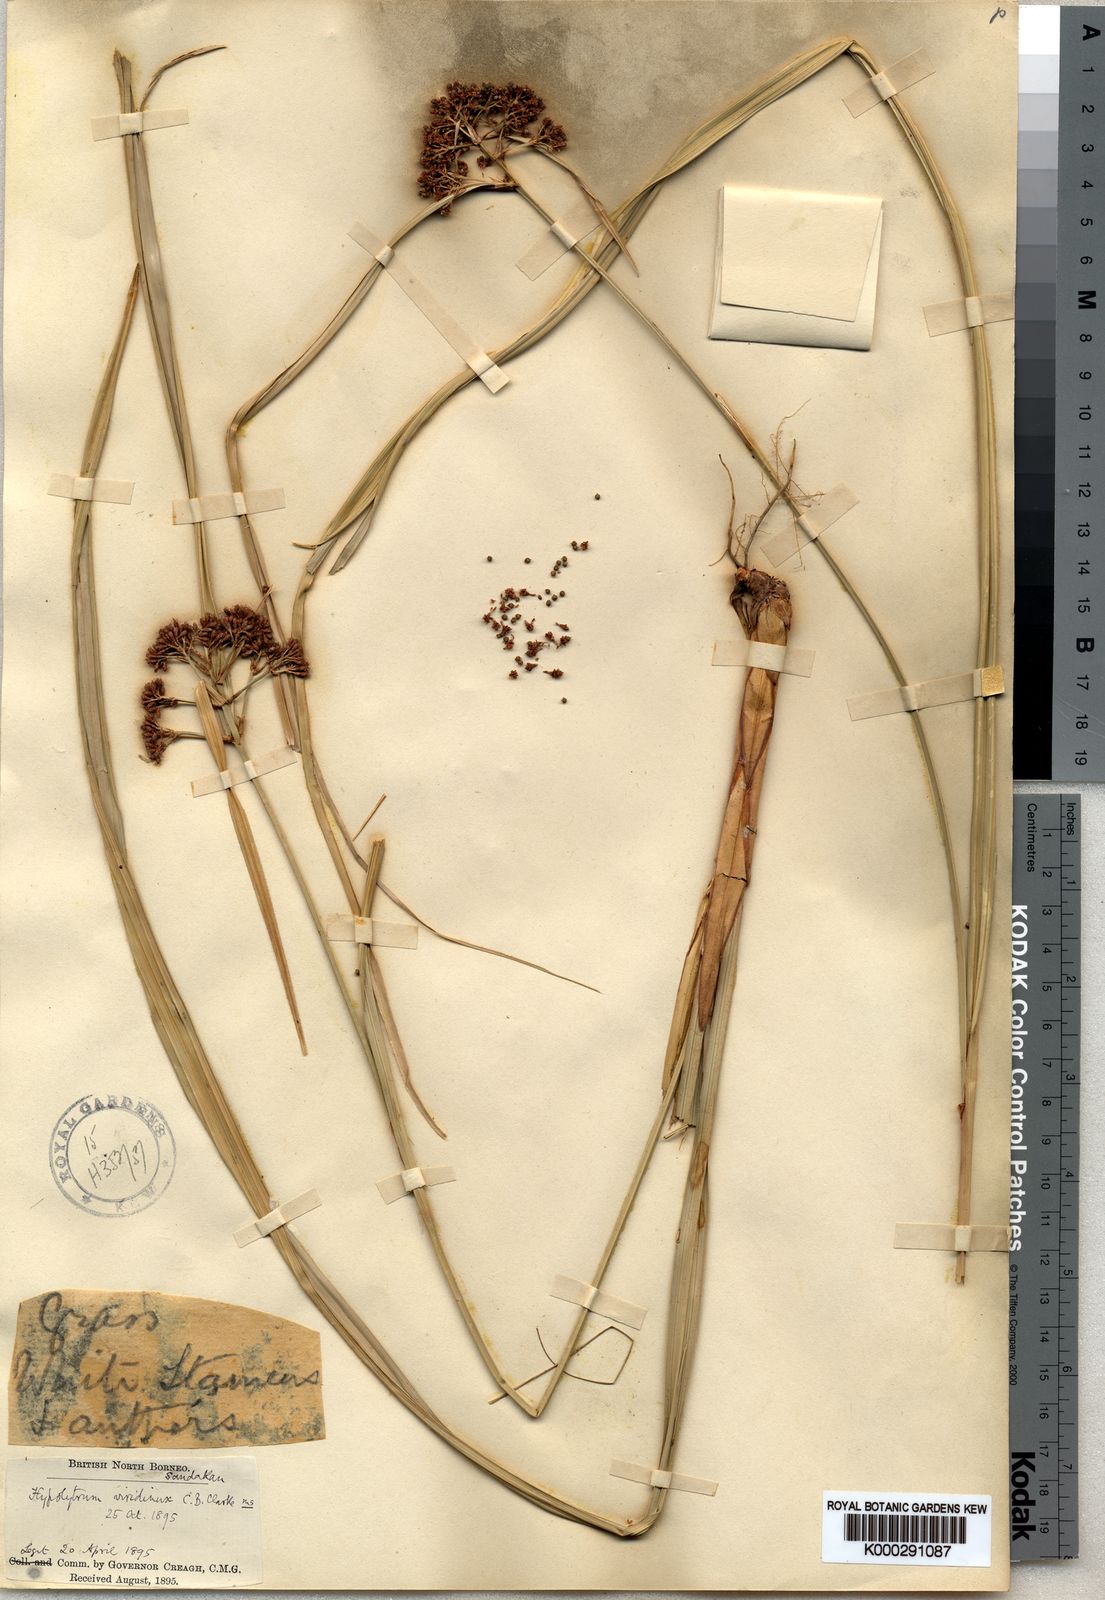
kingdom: Plantae
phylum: Tracheophyta
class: Liliopsida
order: Poales
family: Cyperaceae
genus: Hypolytrum
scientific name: Hypolytrum nemorum
